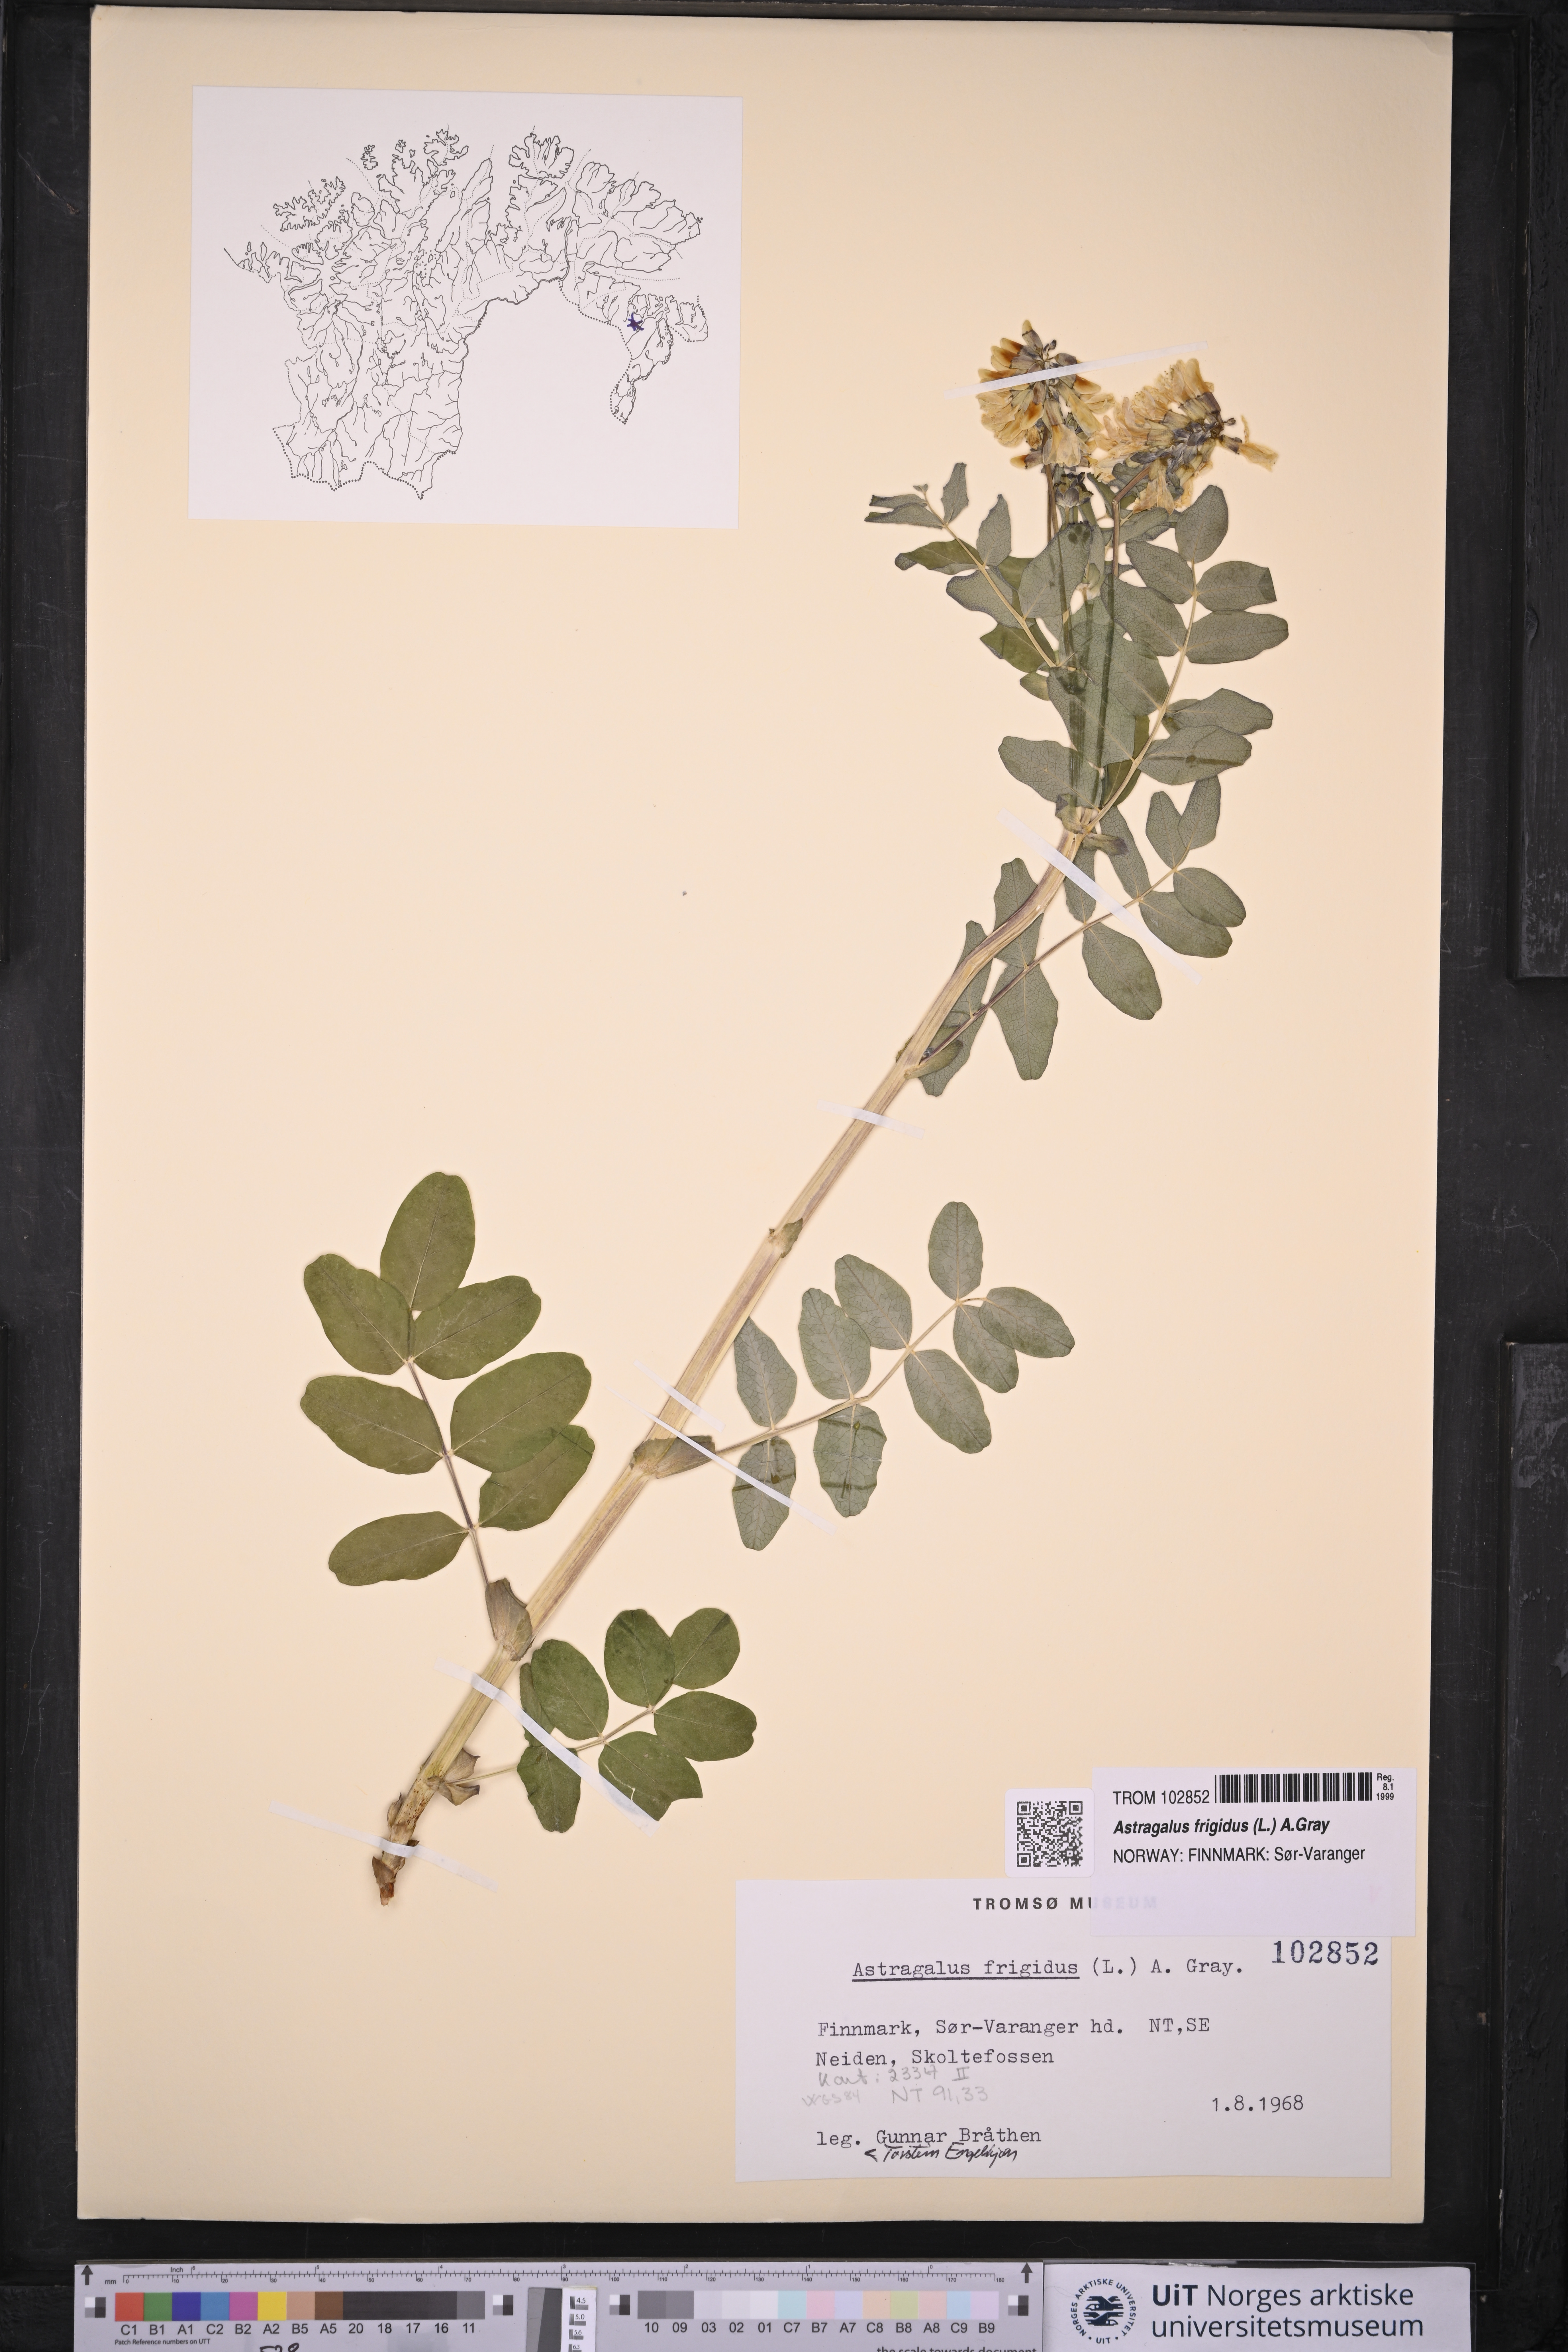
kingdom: Plantae
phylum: Tracheophyta
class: Magnoliopsida
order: Fabales
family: Fabaceae
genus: Astragalus
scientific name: Astragalus frigidus
